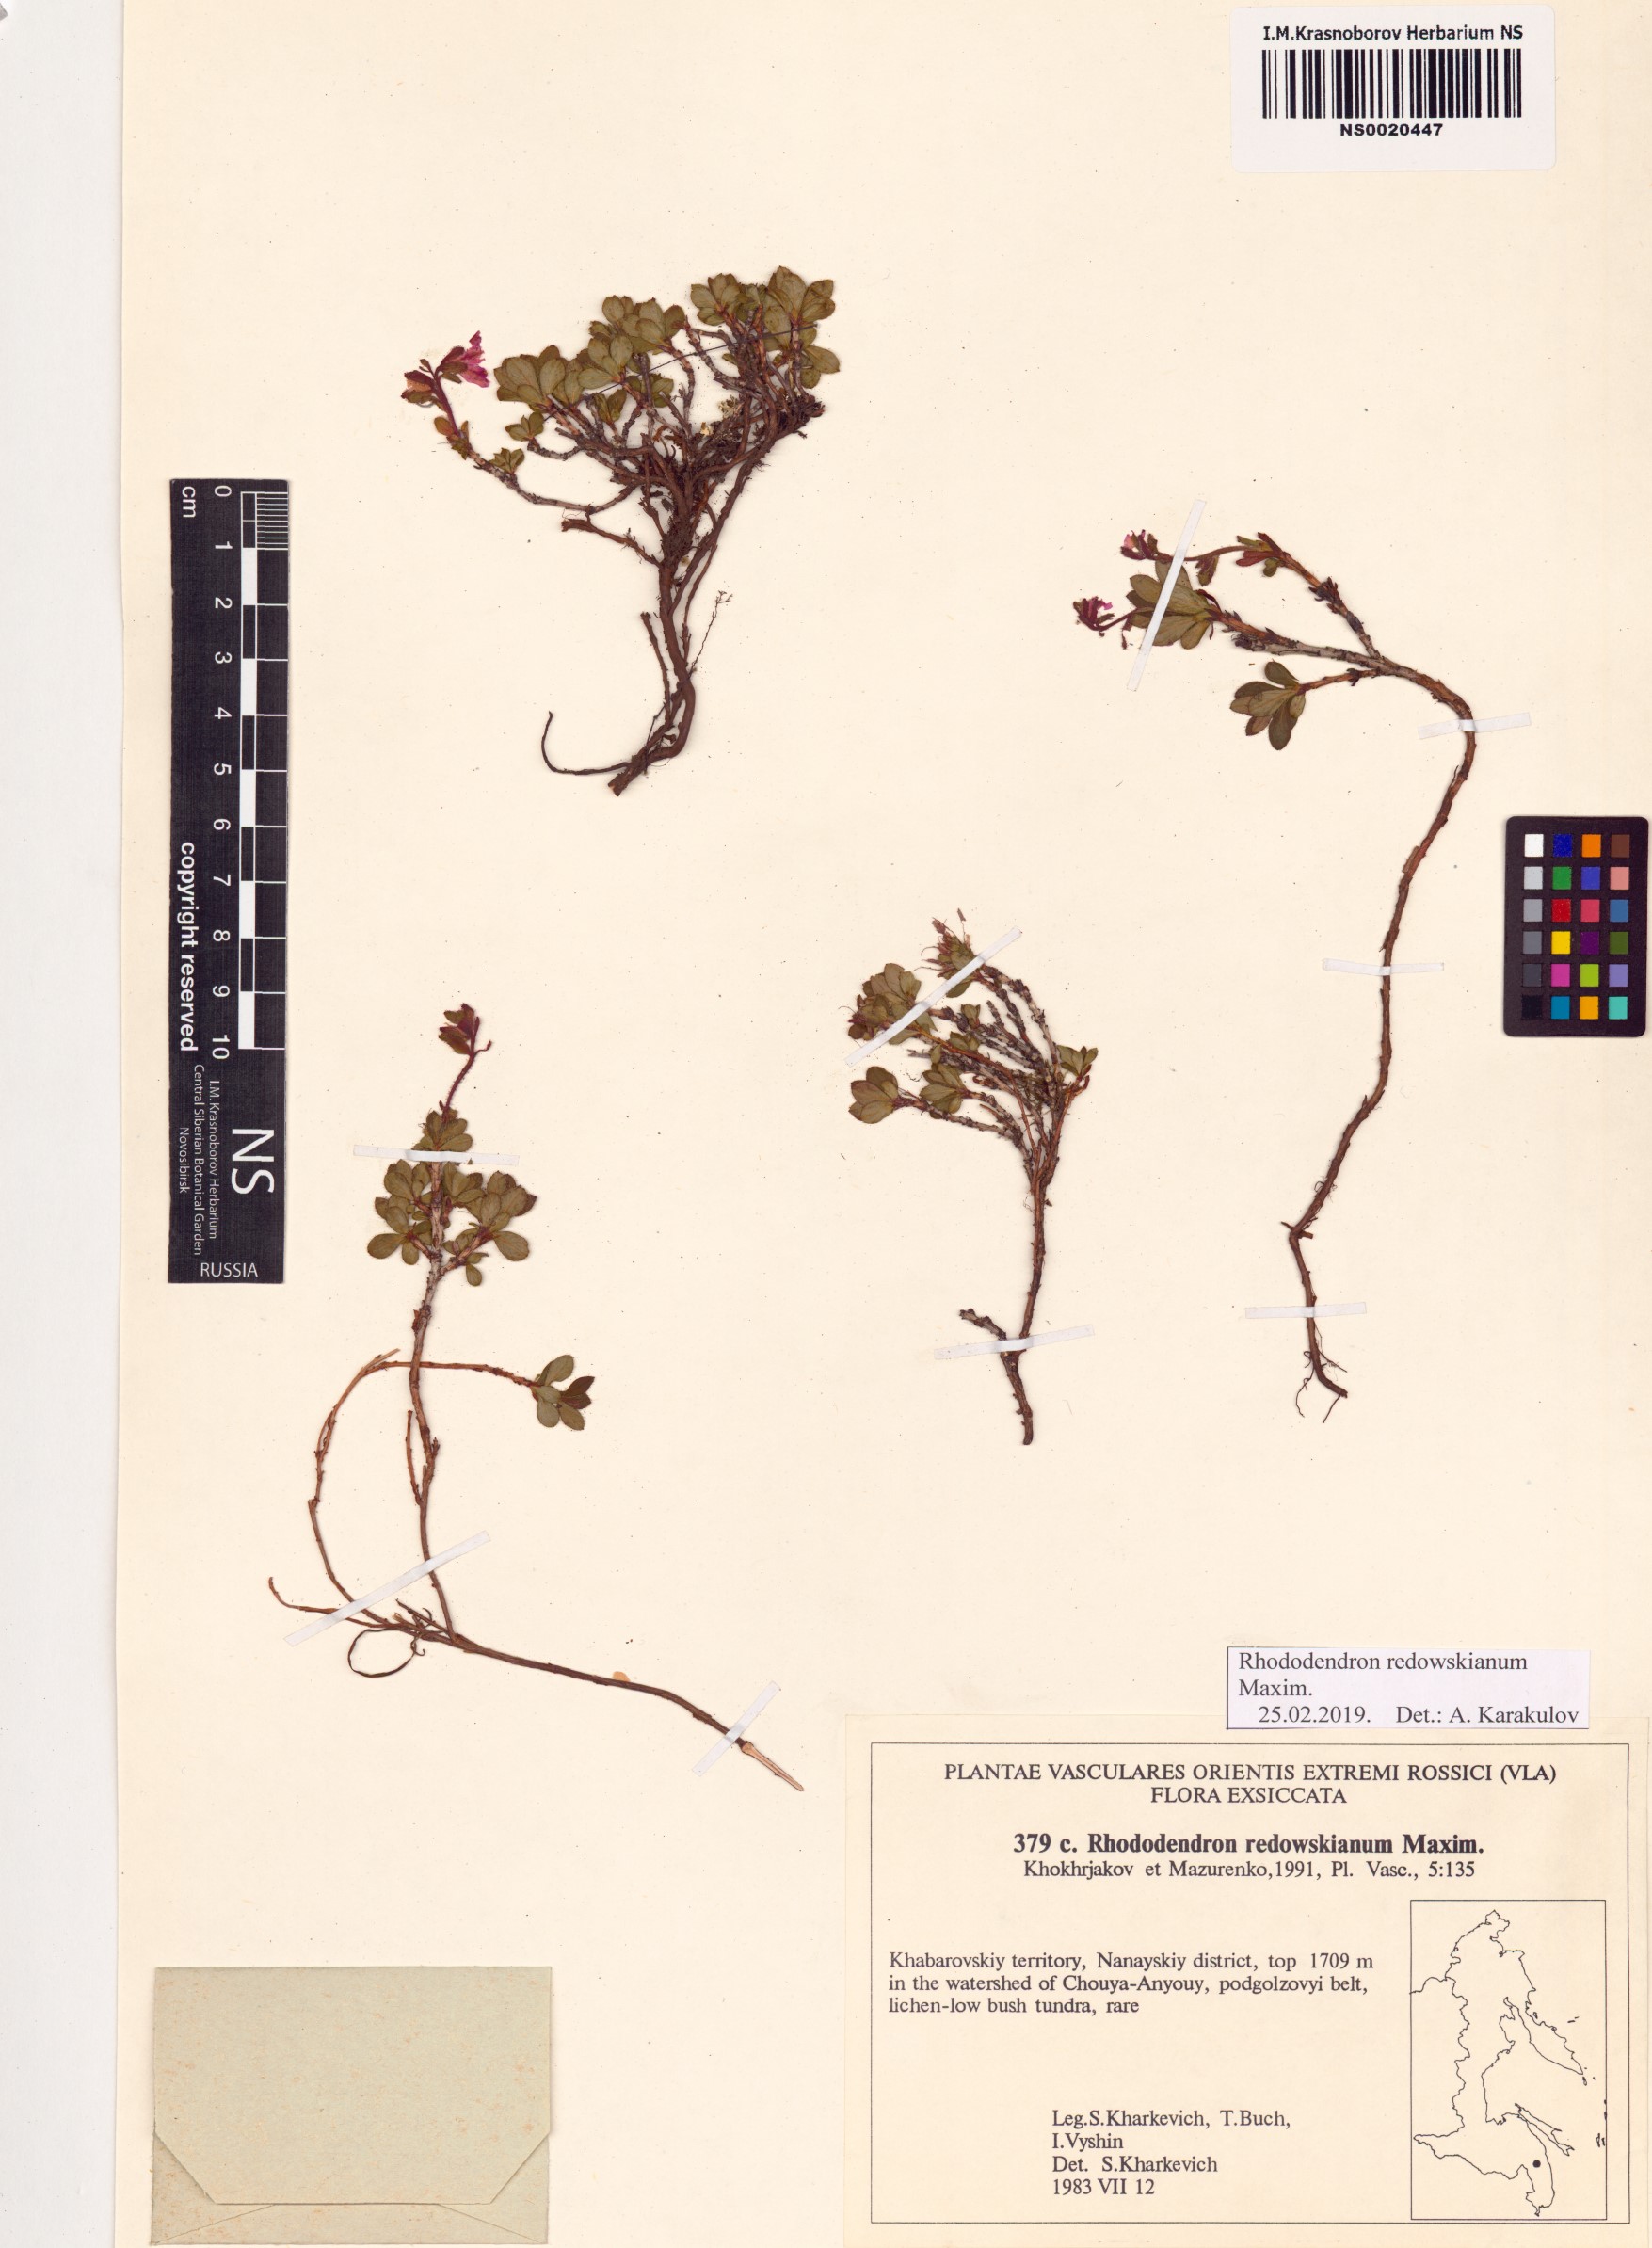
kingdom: Plantae
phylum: Tracheophyta
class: Magnoliopsida
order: Ericales
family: Ericaceae
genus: Rhododendron
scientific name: Rhododendron redowskianum
